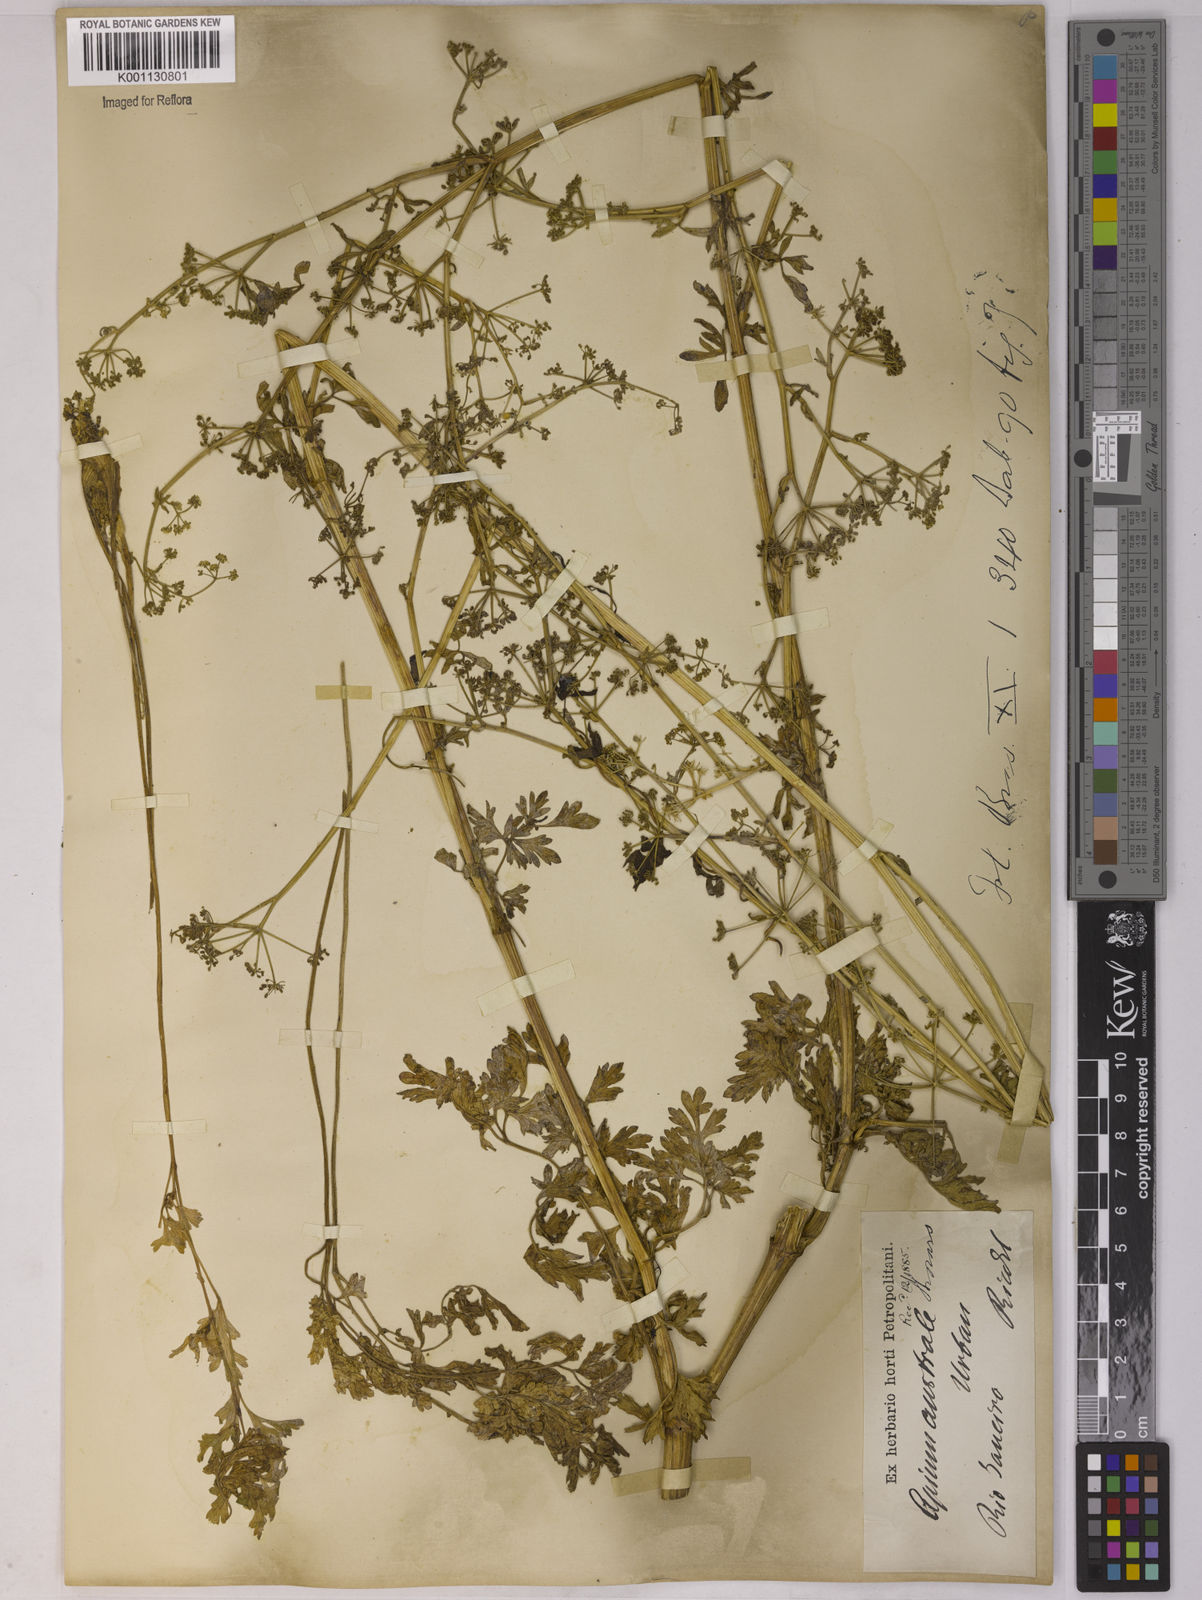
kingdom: Plantae
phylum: Tracheophyta
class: Magnoliopsida
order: Apiales
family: Apiaceae
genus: Apium
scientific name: Apium sellowianum
